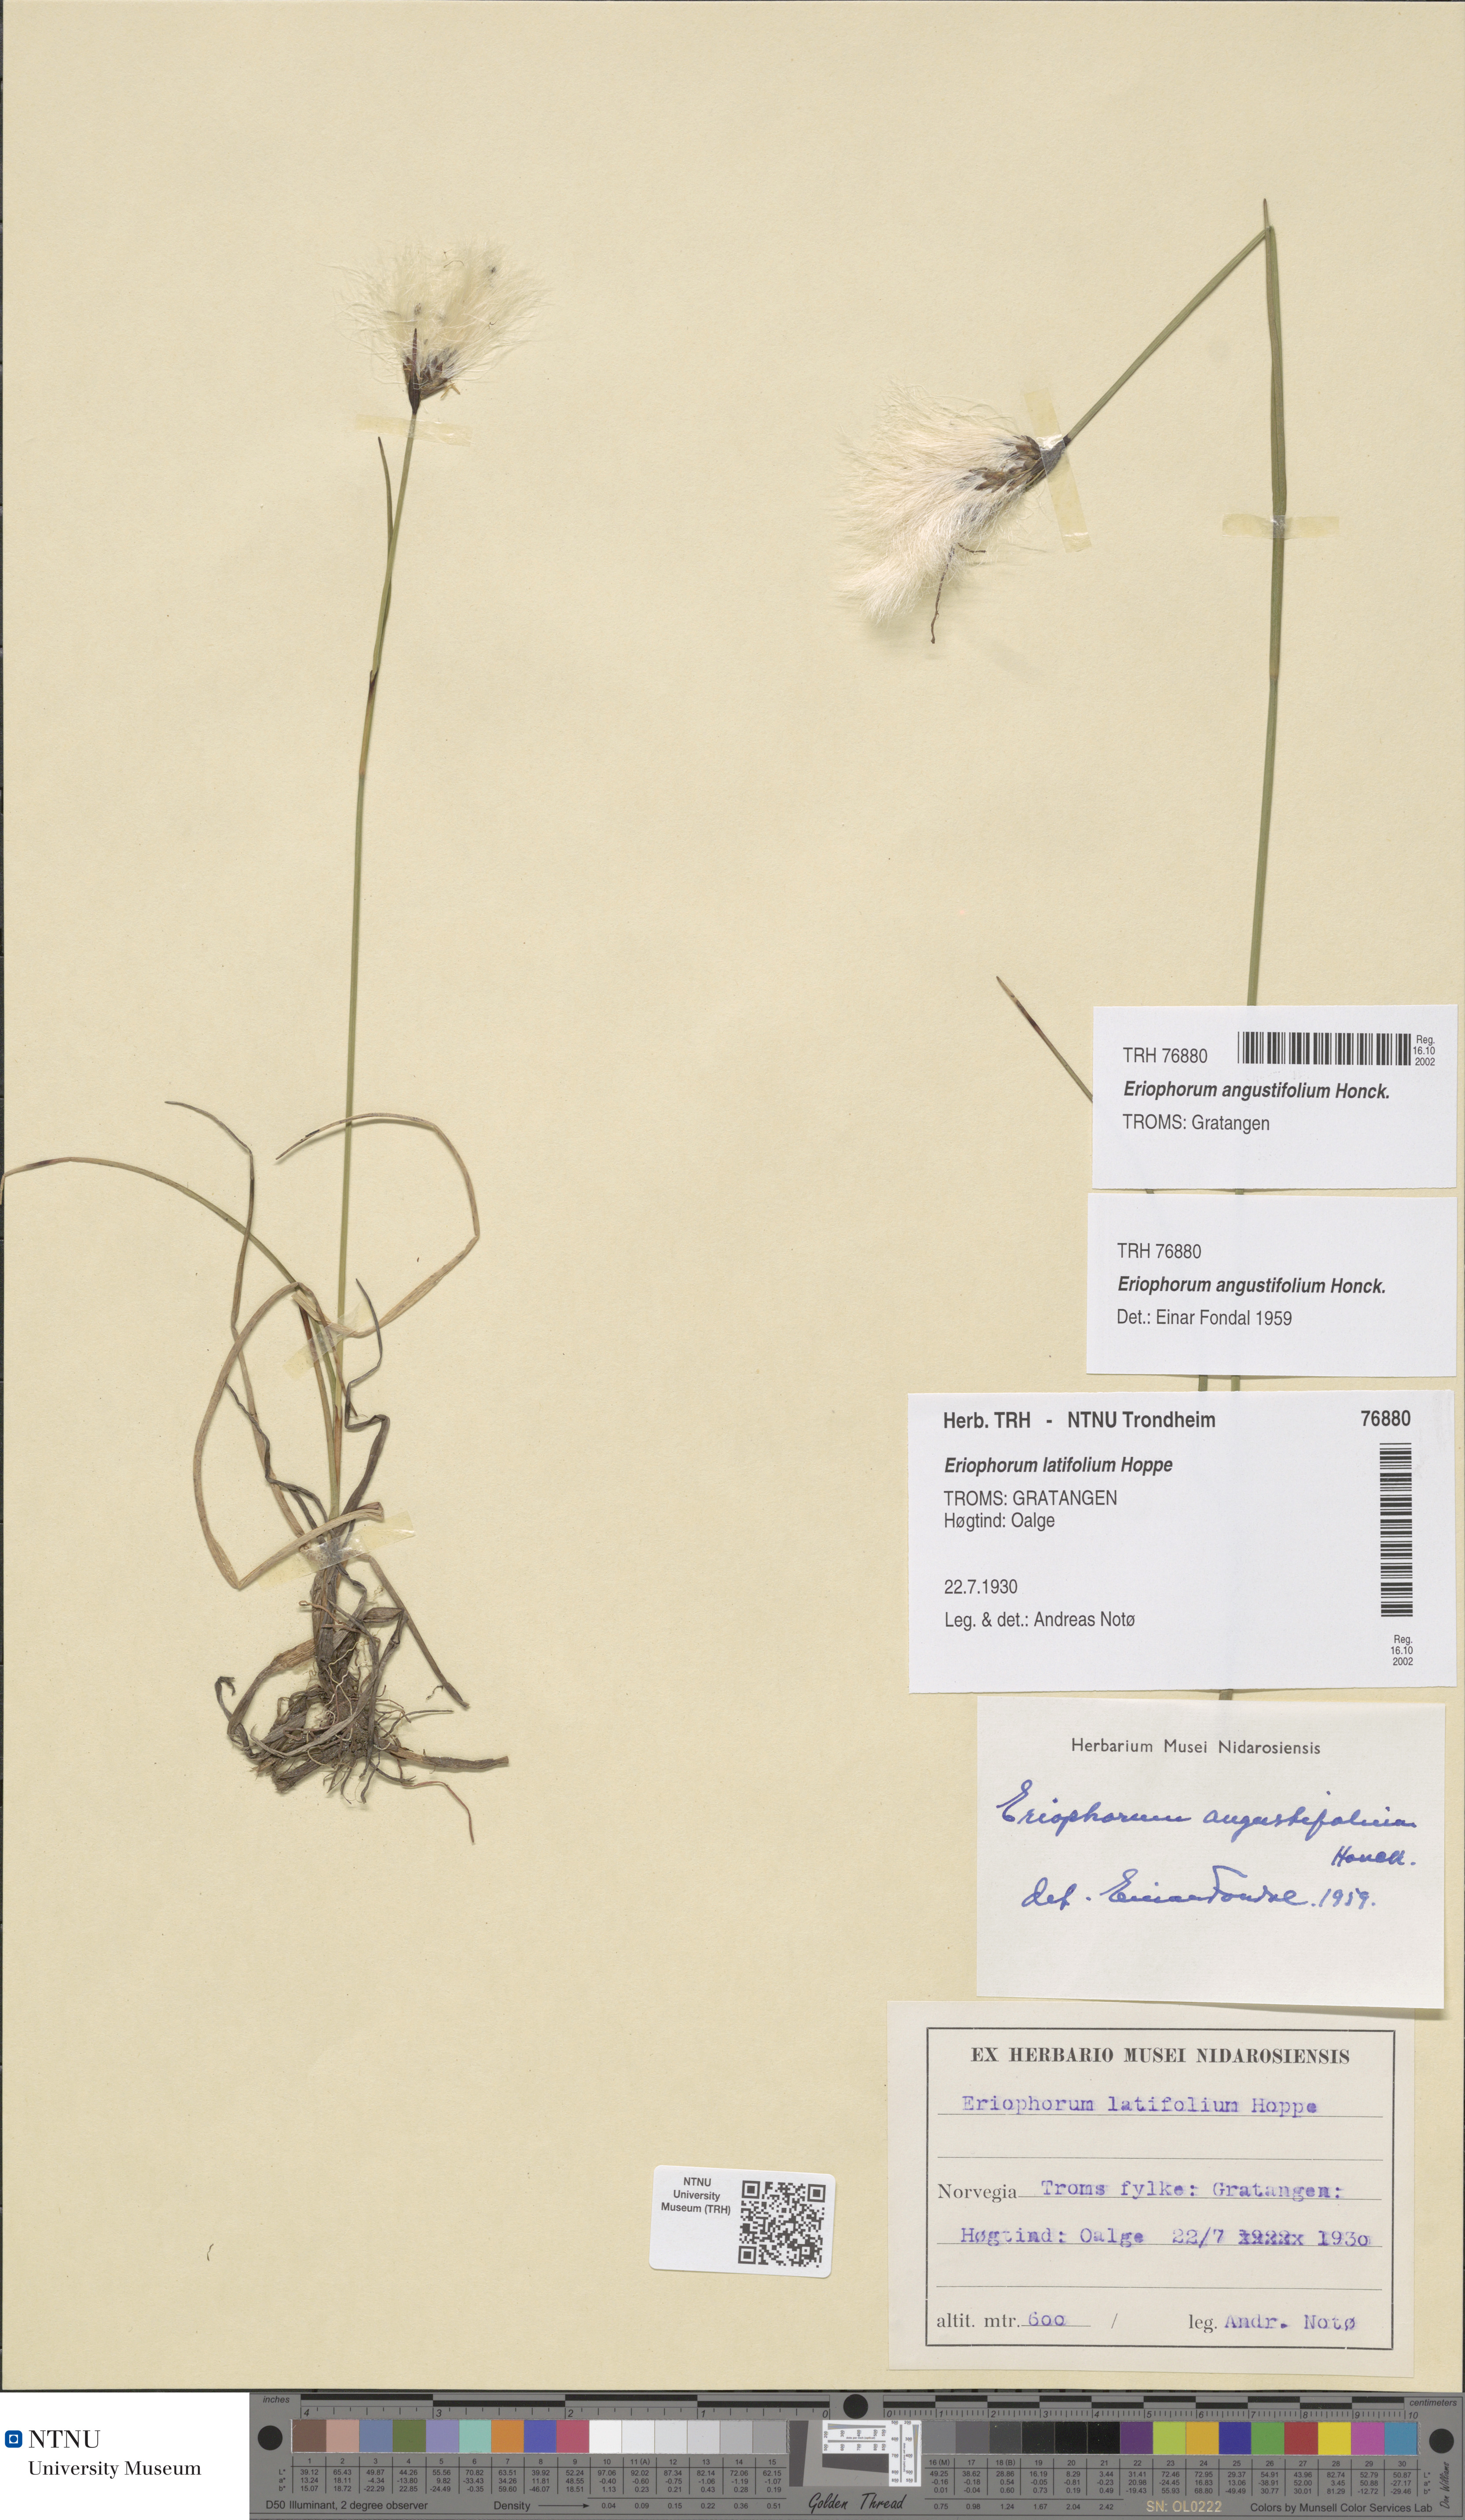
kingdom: Plantae
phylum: Tracheophyta
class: Liliopsida
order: Poales
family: Cyperaceae
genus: Eriophorum
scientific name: Eriophorum angustifolium
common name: Common cottongrass
